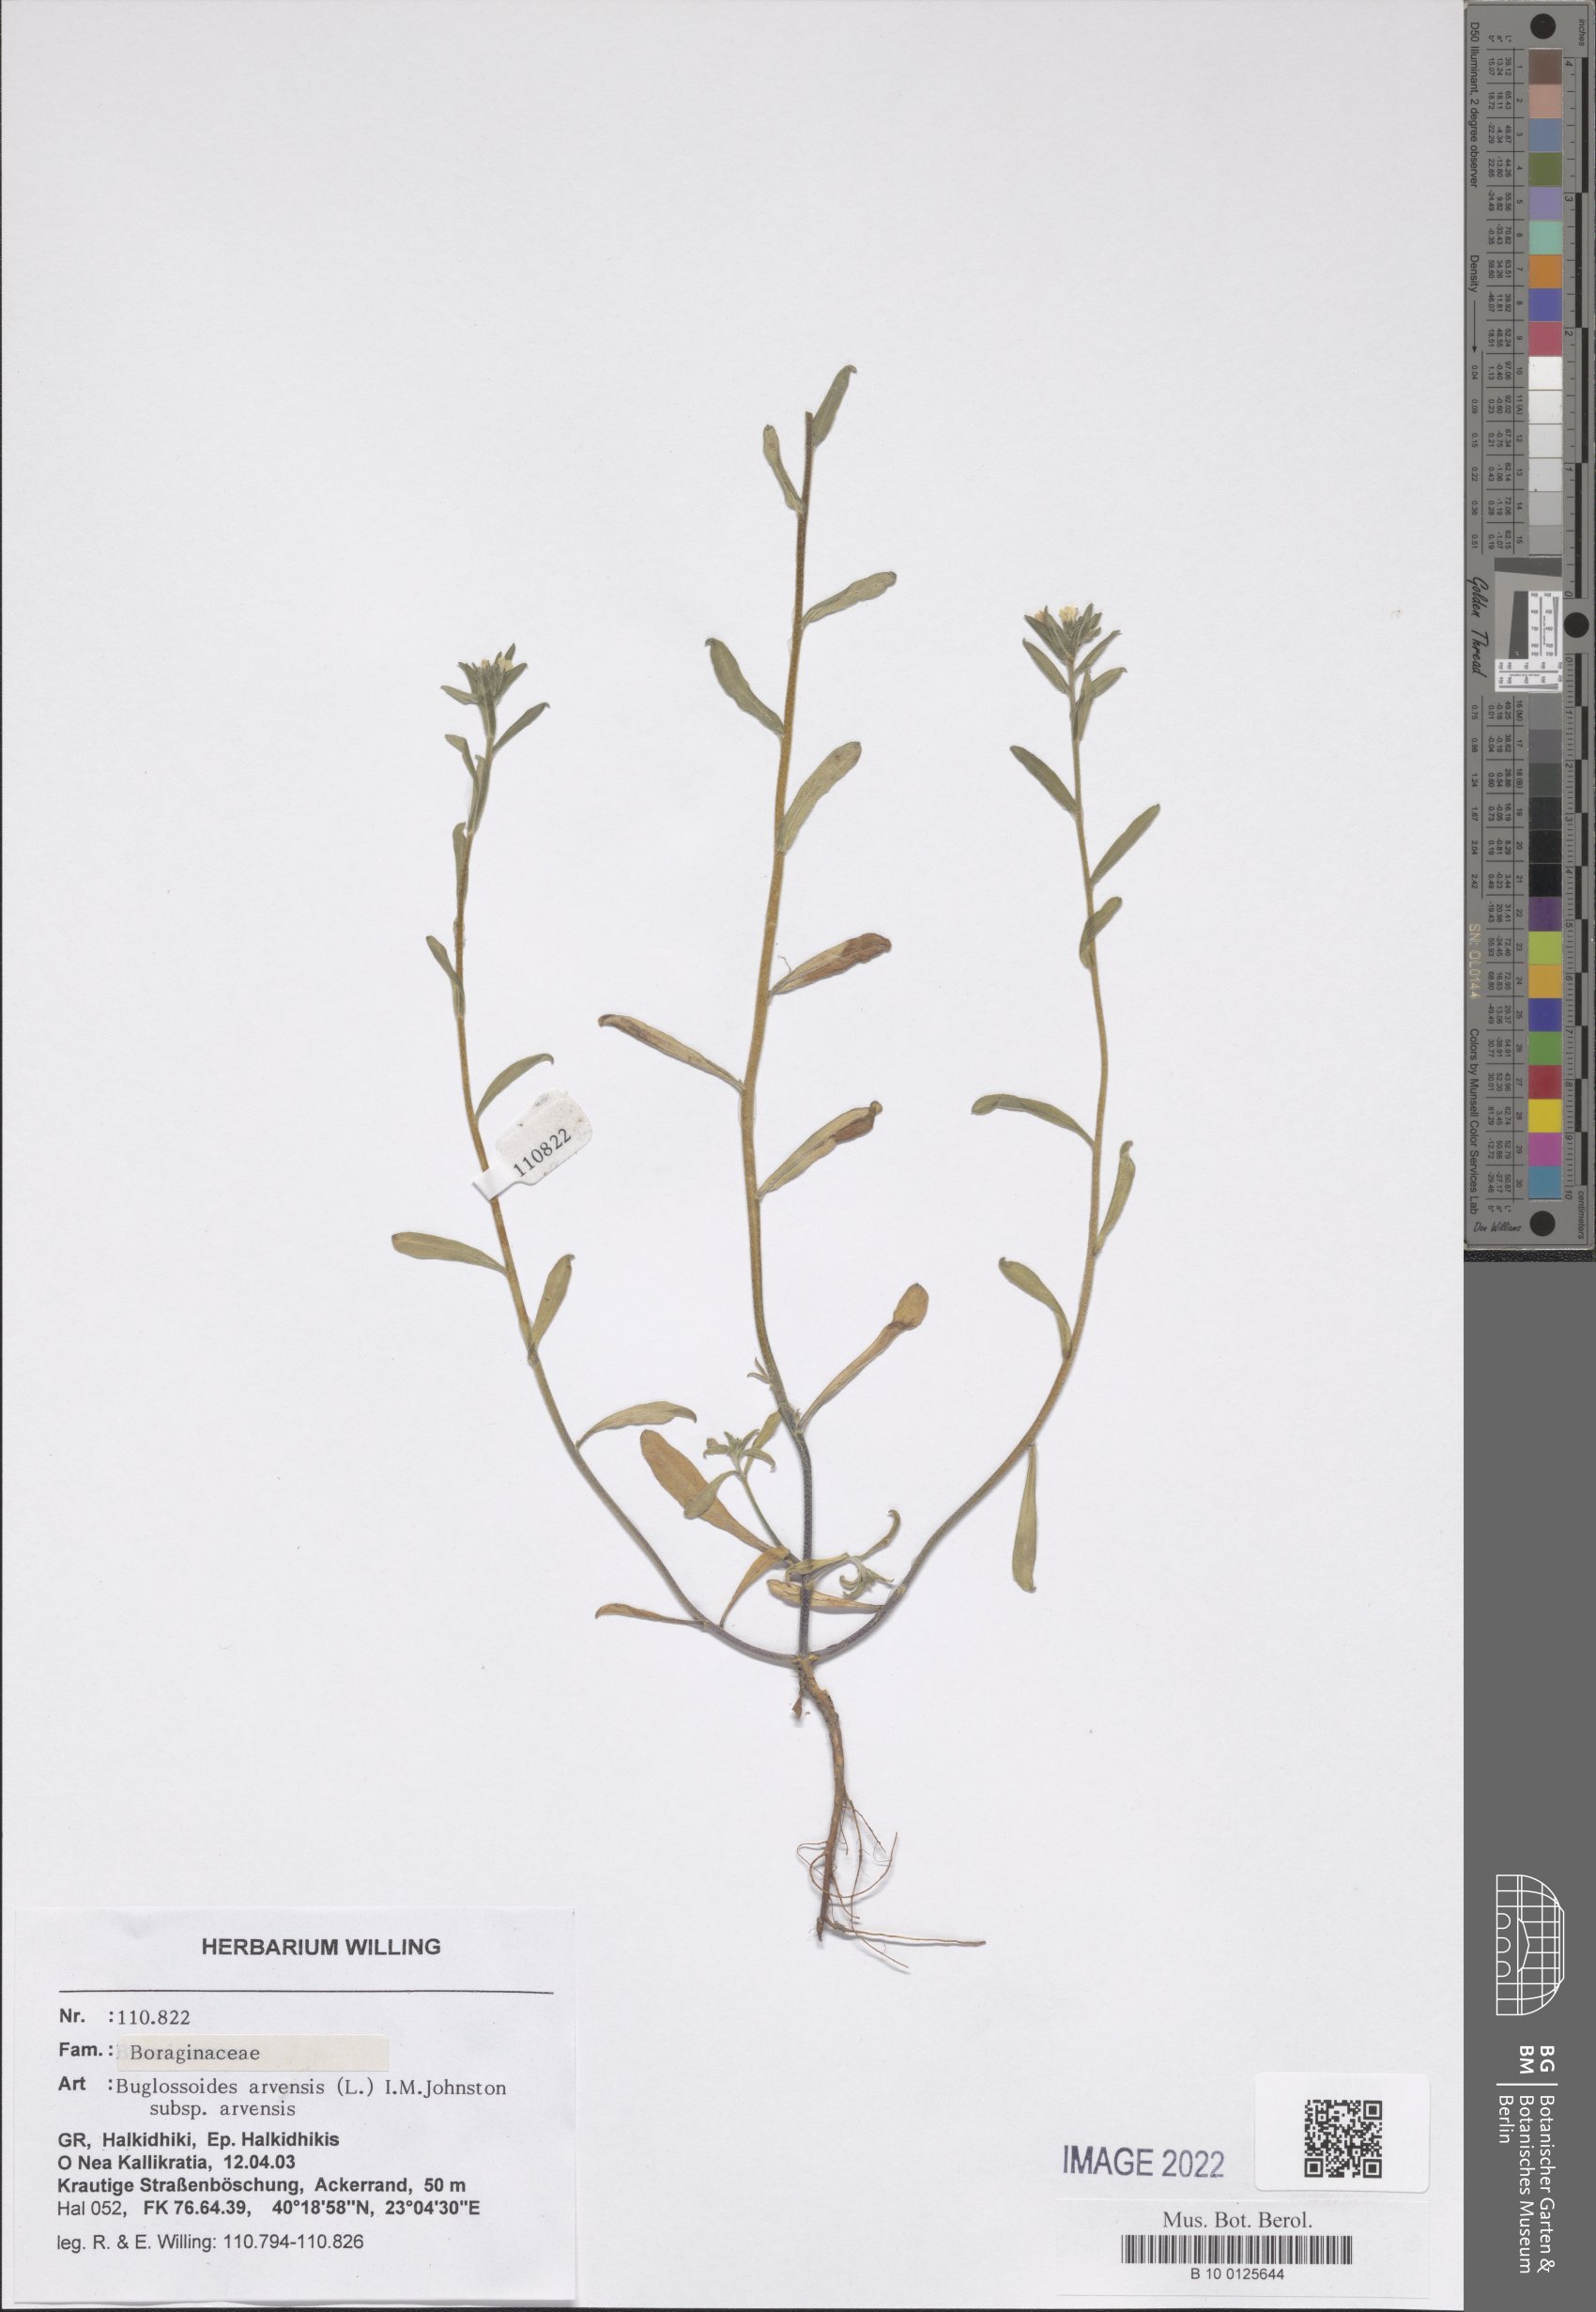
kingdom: Plantae
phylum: Tracheophyta
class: Magnoliopsida
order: Boraginales
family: Boraginaceae
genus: Buglossoides
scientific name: Buglossoides arvensis
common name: Corn gromwell
